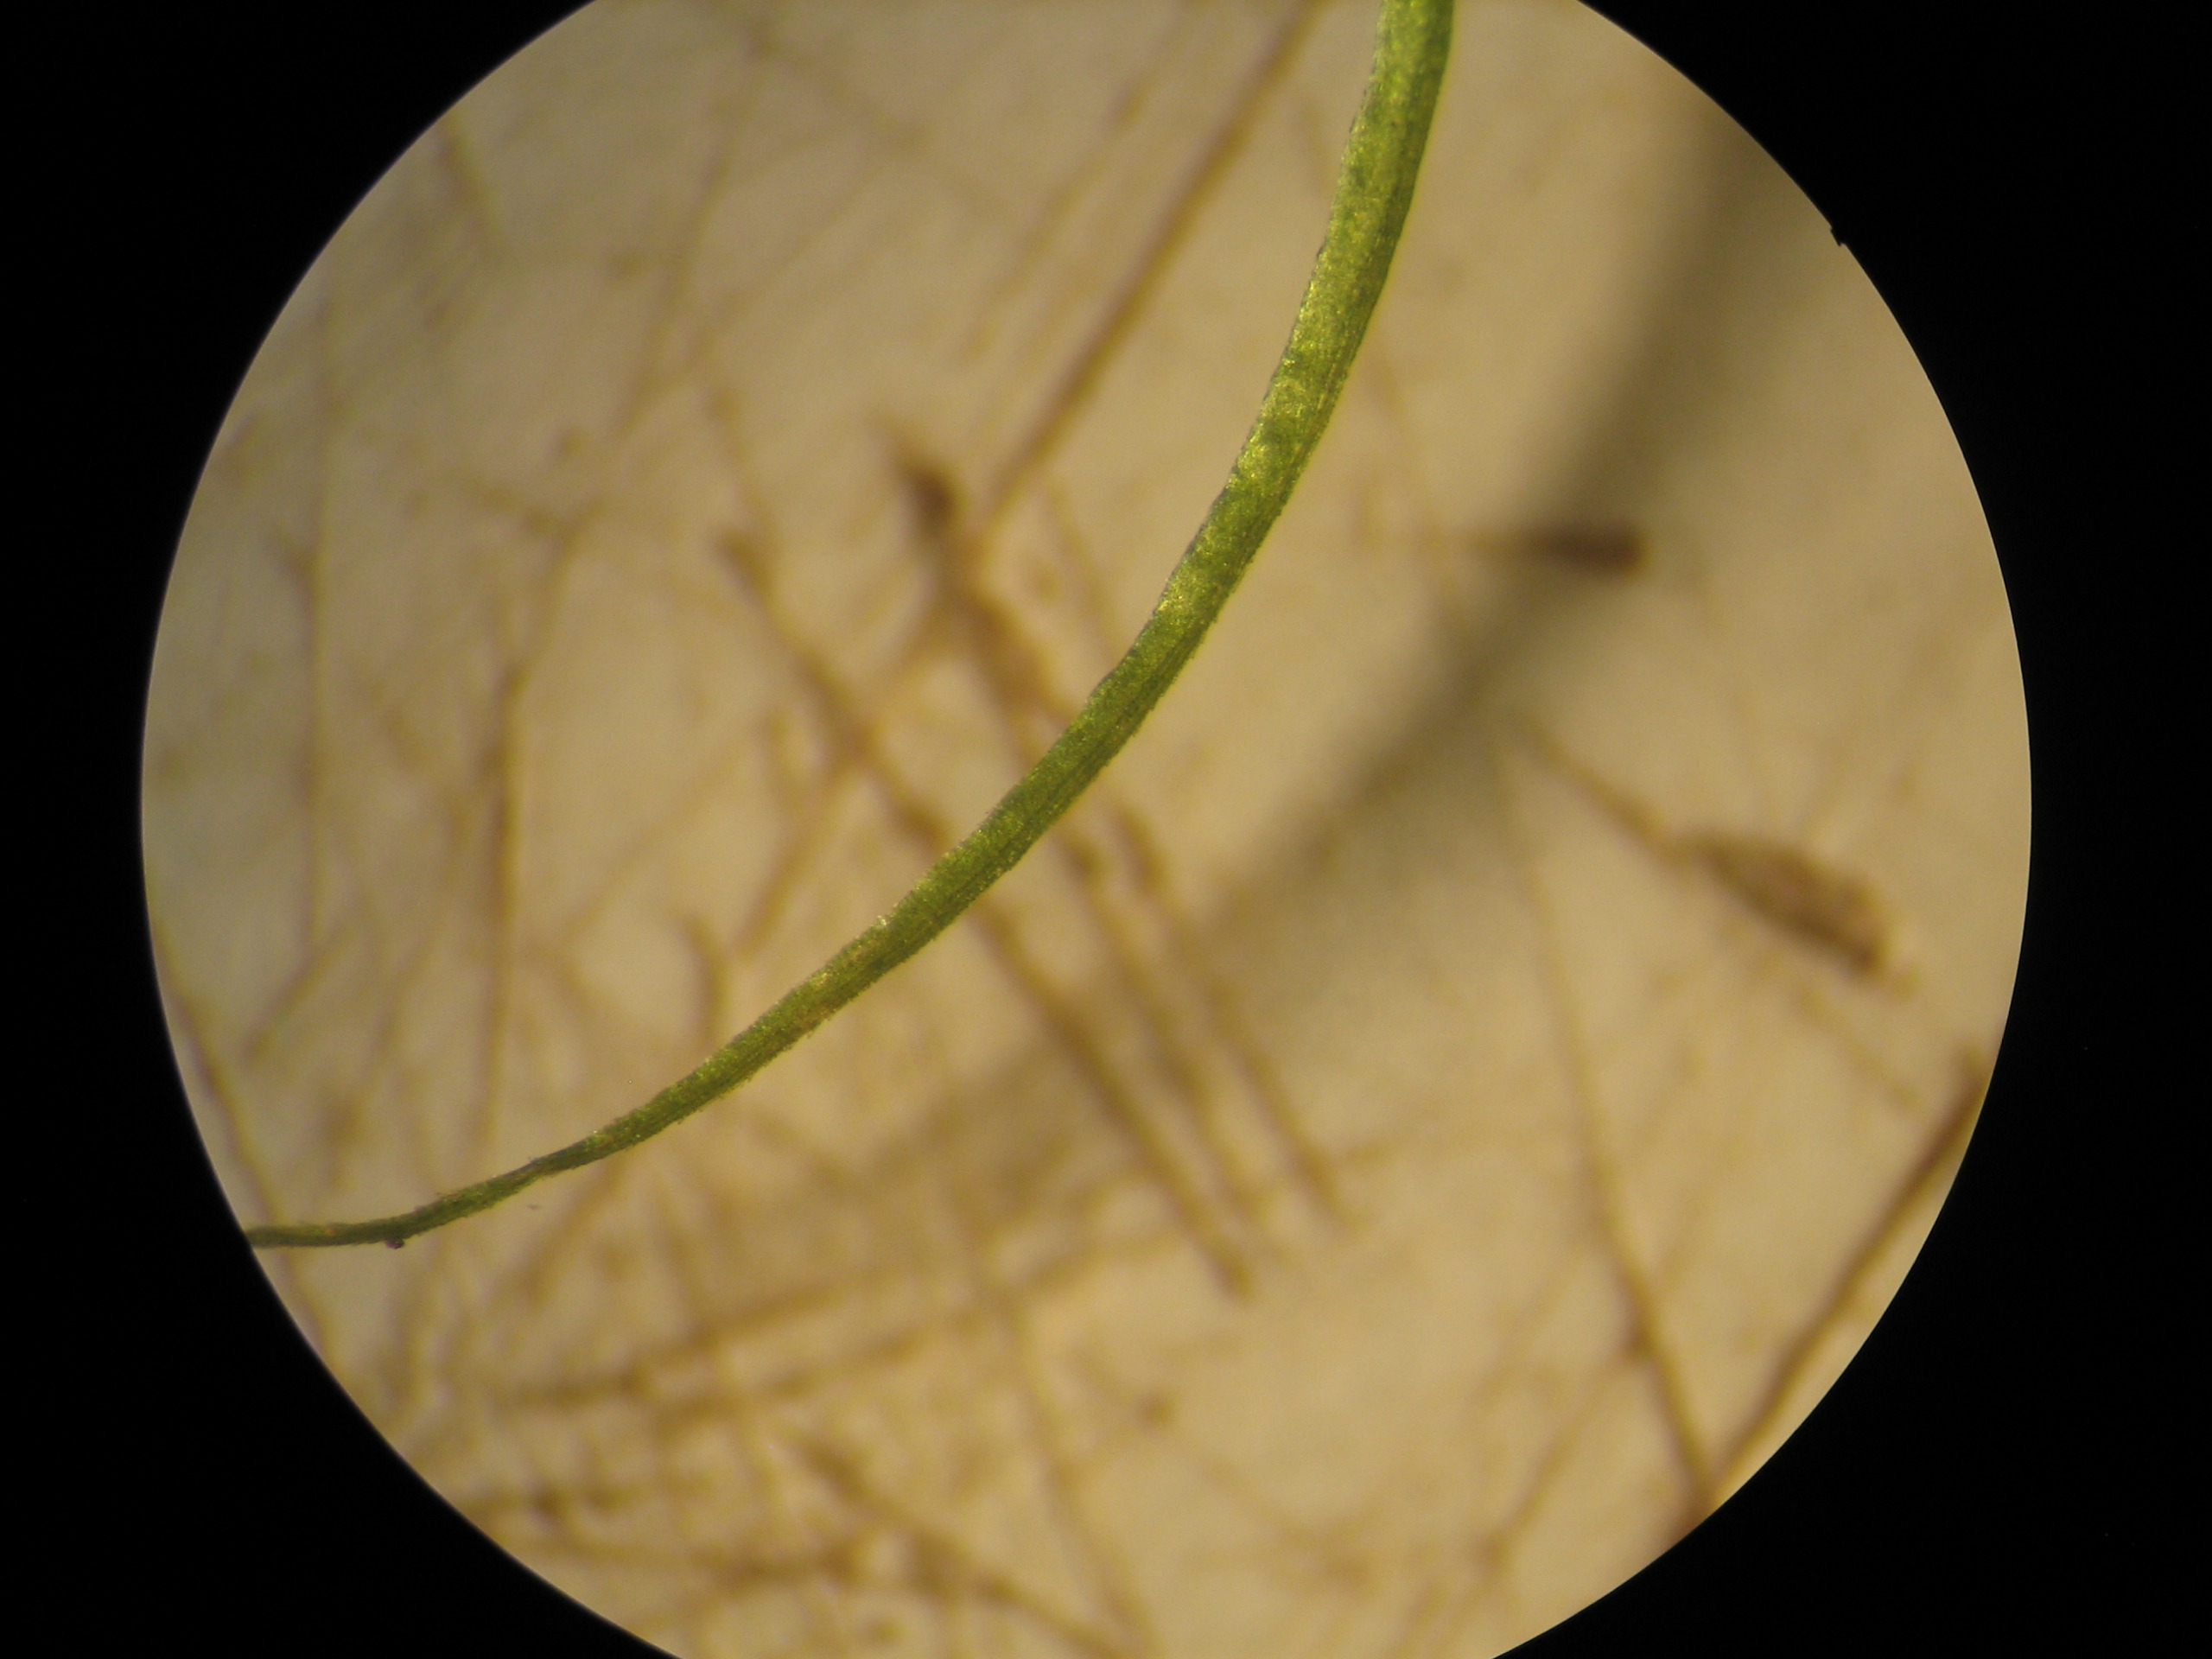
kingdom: Plantae
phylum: Bryophyta
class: Bryopsida
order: Dicranales
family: Dicranaceae
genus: Dicranum
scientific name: Dicranum scoparium
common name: Almindelig kløvtand
